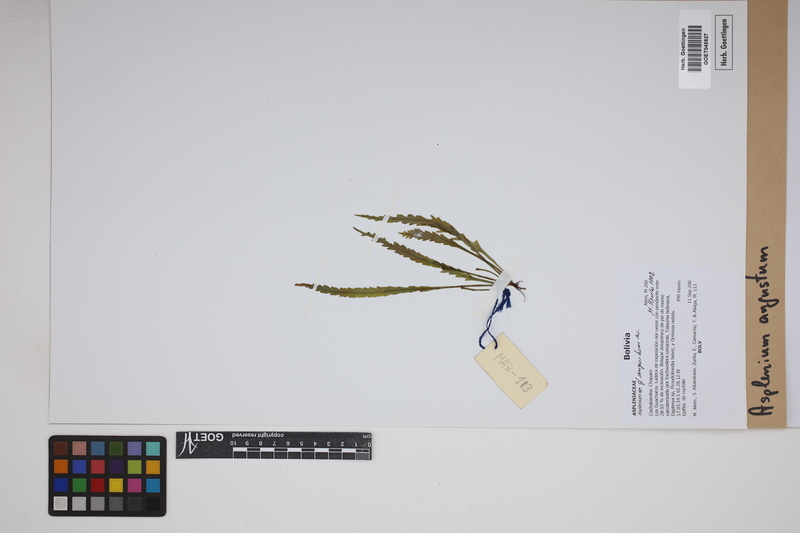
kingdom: Plantae
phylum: Tracheophyta
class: Polypodiopsida
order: Polypodiales
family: Aspleniaceae
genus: Asplenium
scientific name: Asplenium angustum
